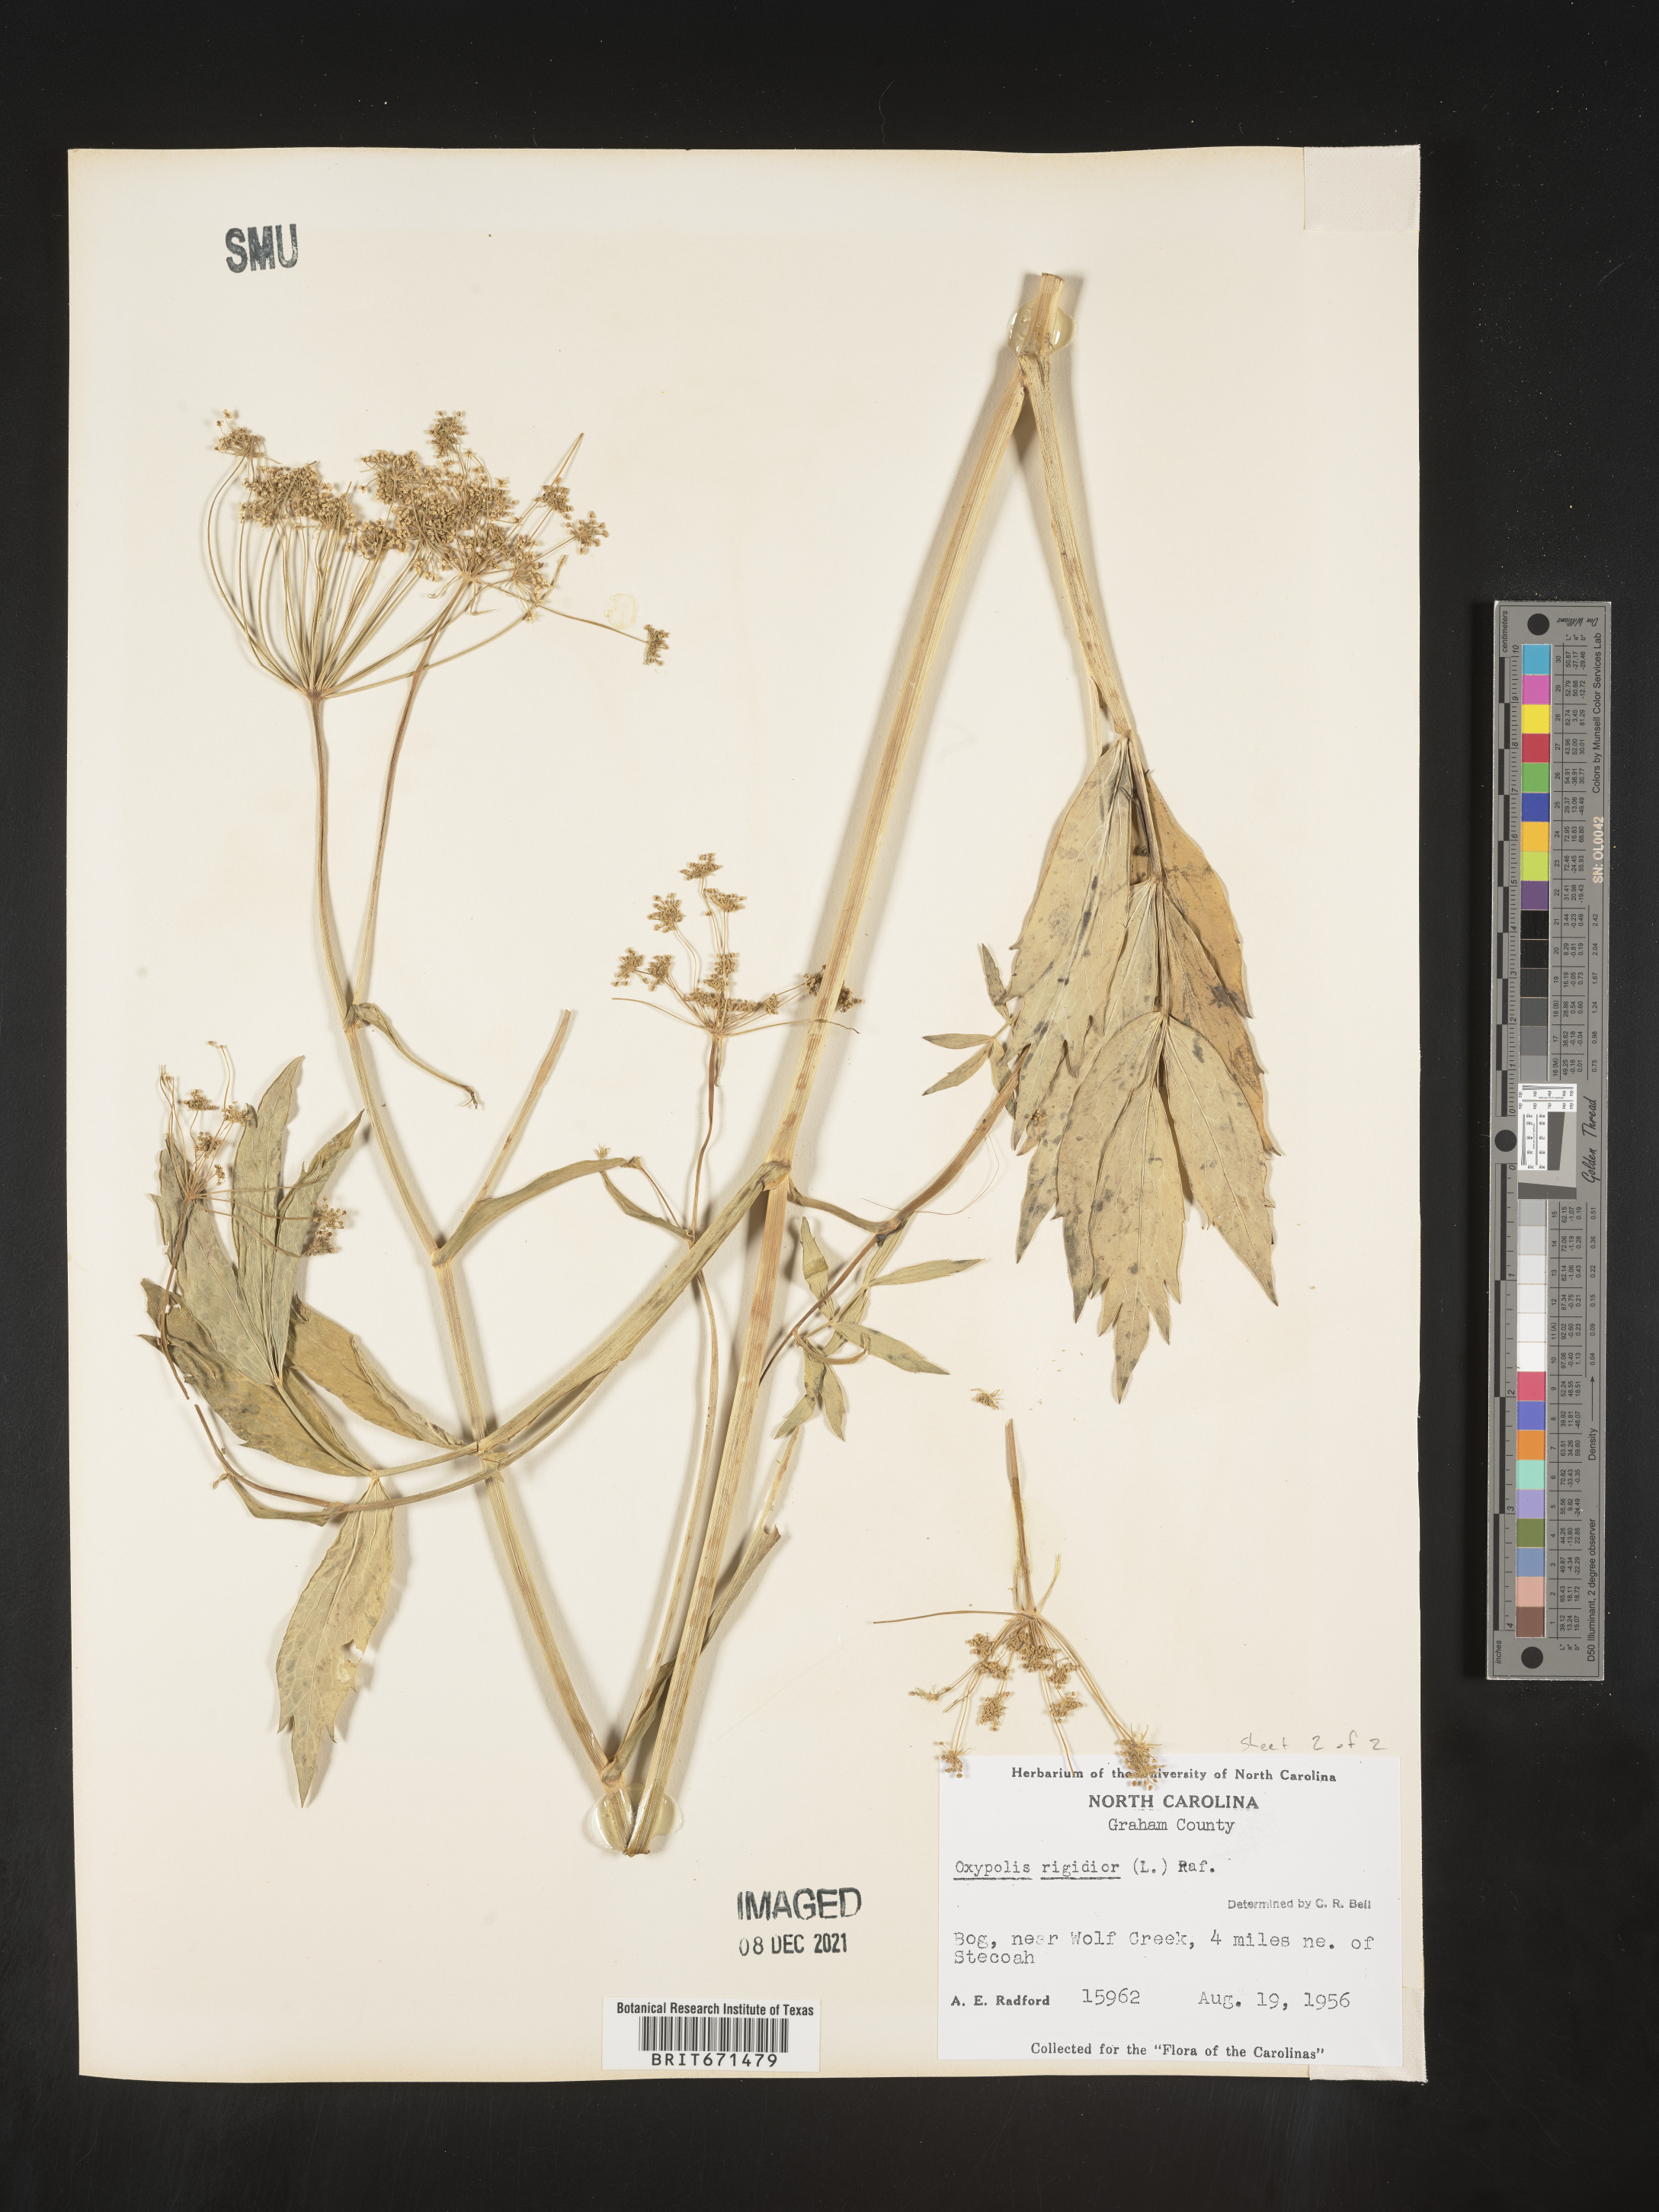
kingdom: Plantae
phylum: Tracheophyta
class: Magnoliopsida
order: Apiales
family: Apiaceae
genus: Oxypolis
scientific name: Oxypolis rigidior
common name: Cowbane
